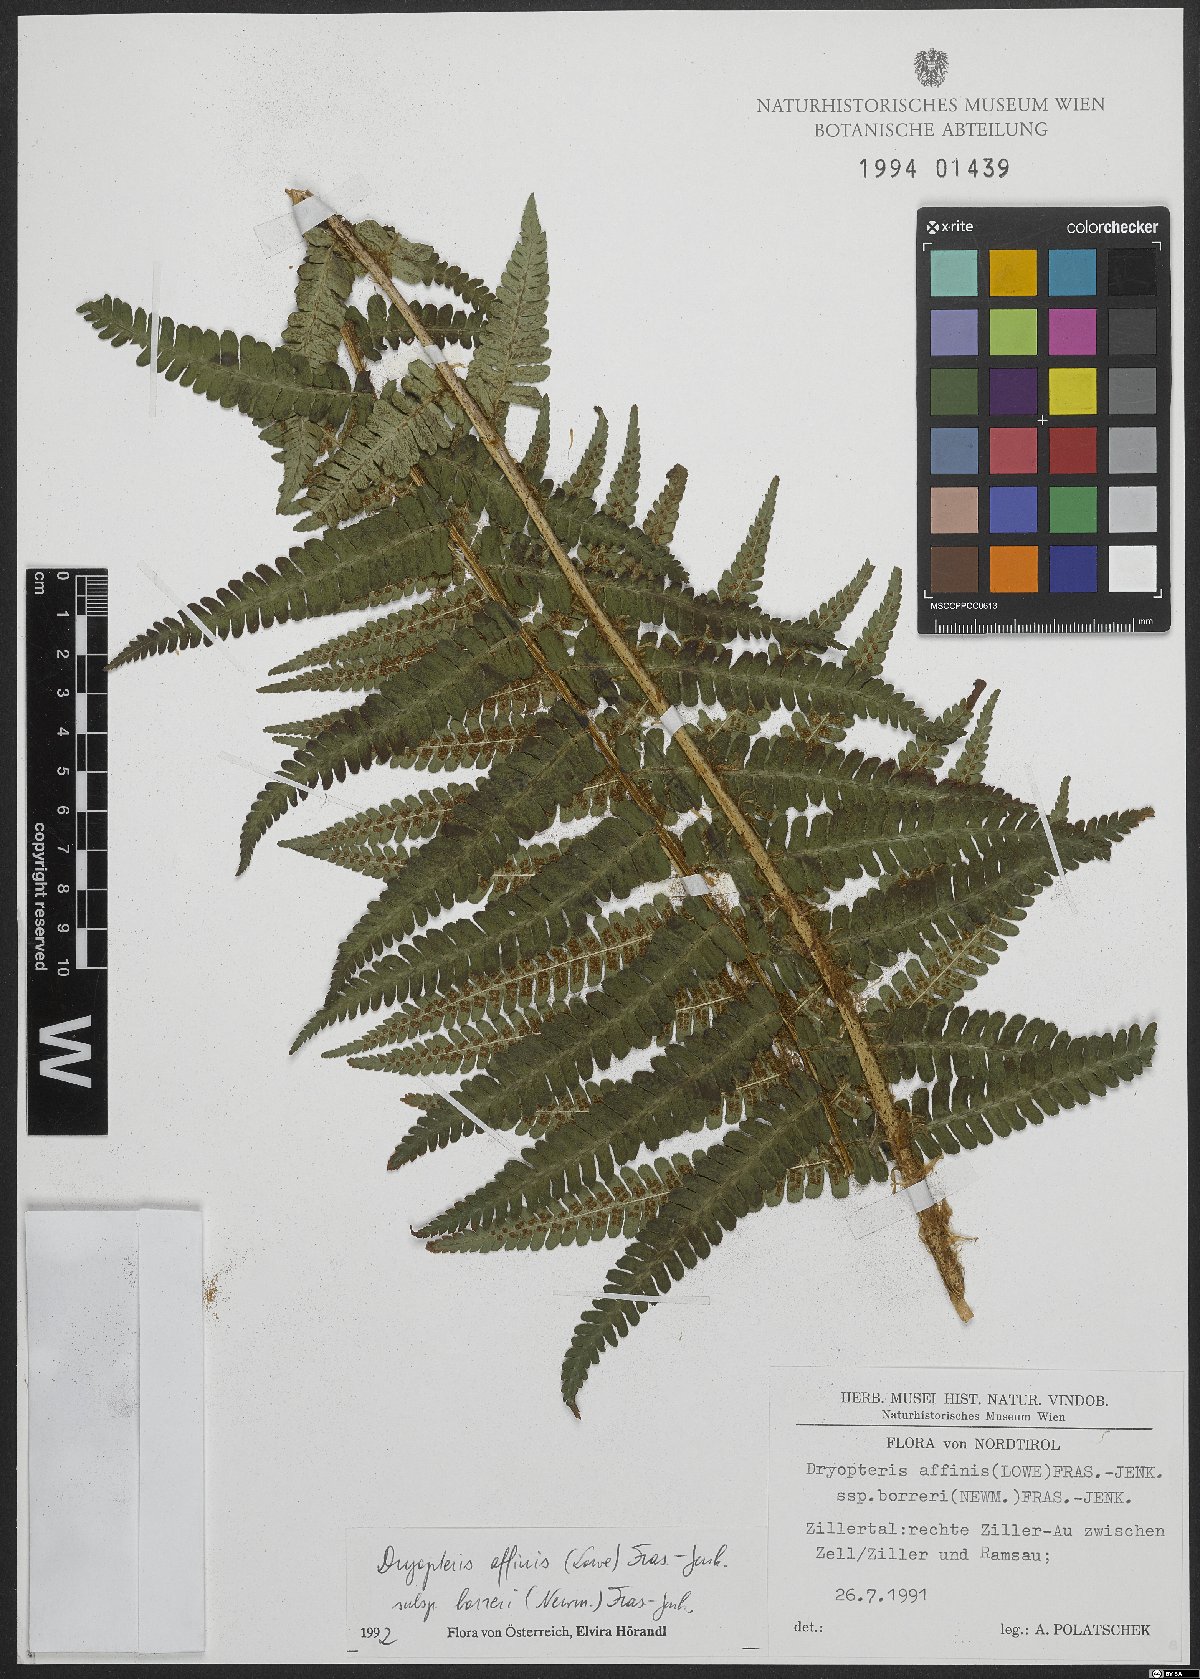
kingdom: Plantae
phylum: Tracheophyta
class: Polypodiopsida
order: Polypodiales
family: Dryopteridaceae
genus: Dryopteris
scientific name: Dryopteris borreri
